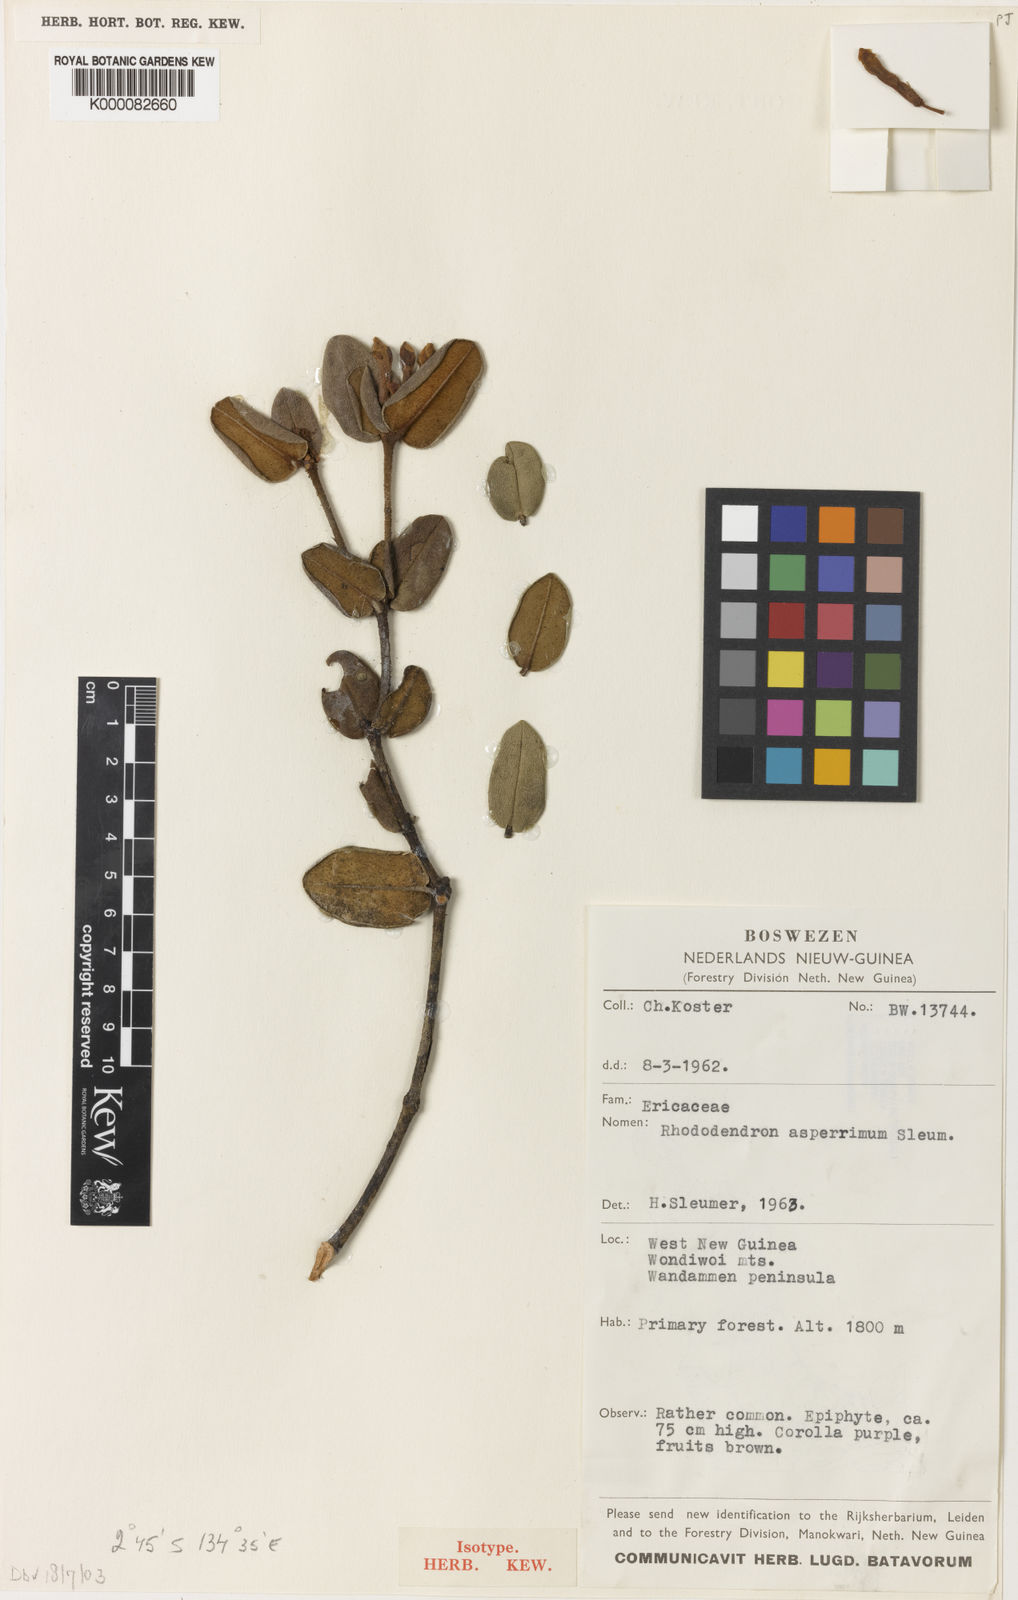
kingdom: Plantae
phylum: Tracheophyta
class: Magnoliopsida
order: Ericales
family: Ericaceae
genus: Rhododendron
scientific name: Rhododendron asperrimum
